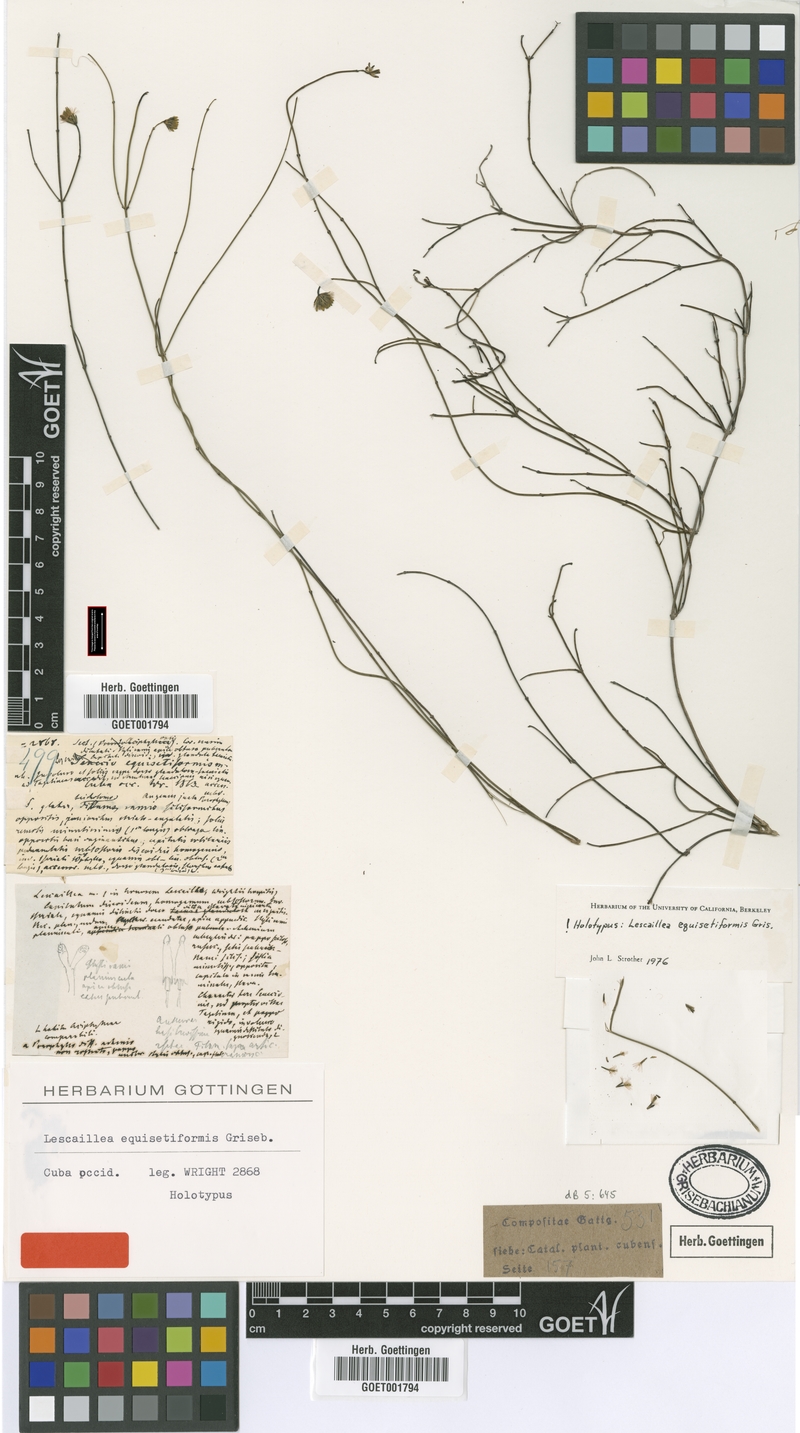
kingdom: Plantae
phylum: Tracheophyta
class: Magnoliopsida
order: Asterales
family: Asteraceae
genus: Lescaillea
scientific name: Lescaillea equisetiformis
